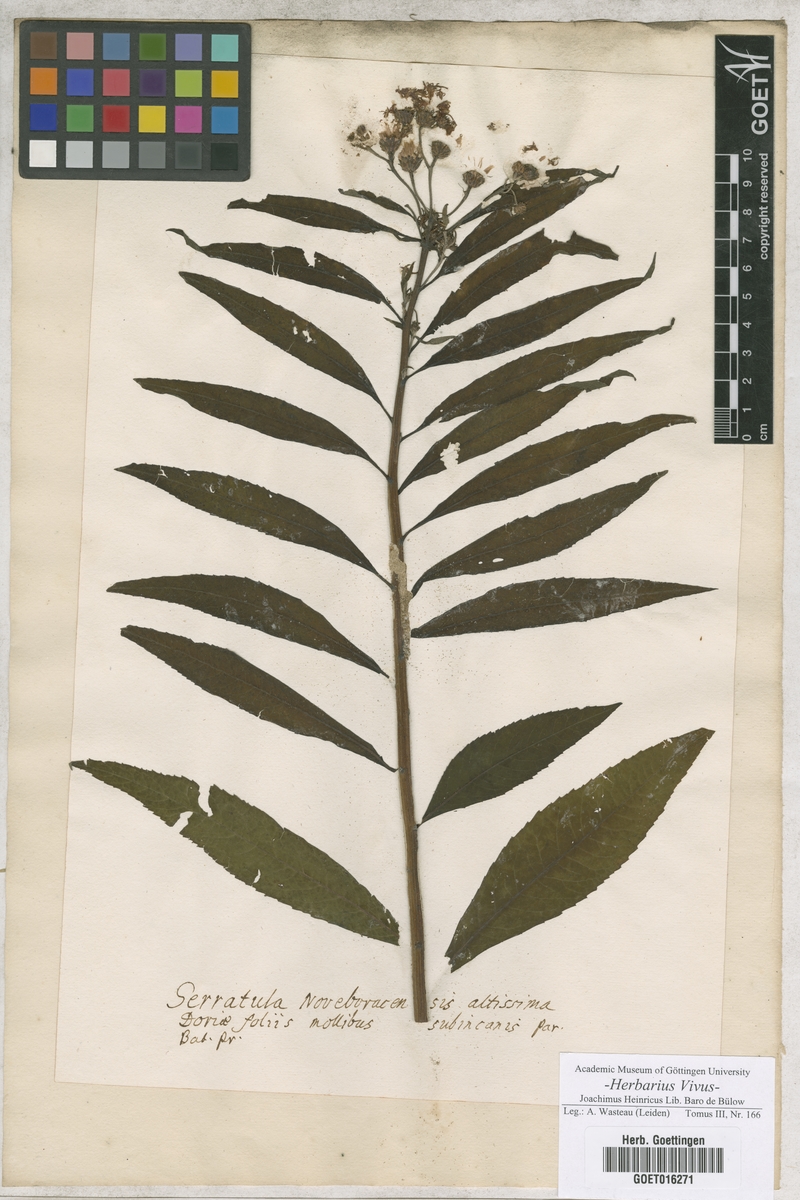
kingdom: Plantae
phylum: Tracheophyta
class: Magnoliopsida
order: Asterales
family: Asteraceae
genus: Vernonia
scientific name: Vernonia noveboracensis
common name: New york ironweed
